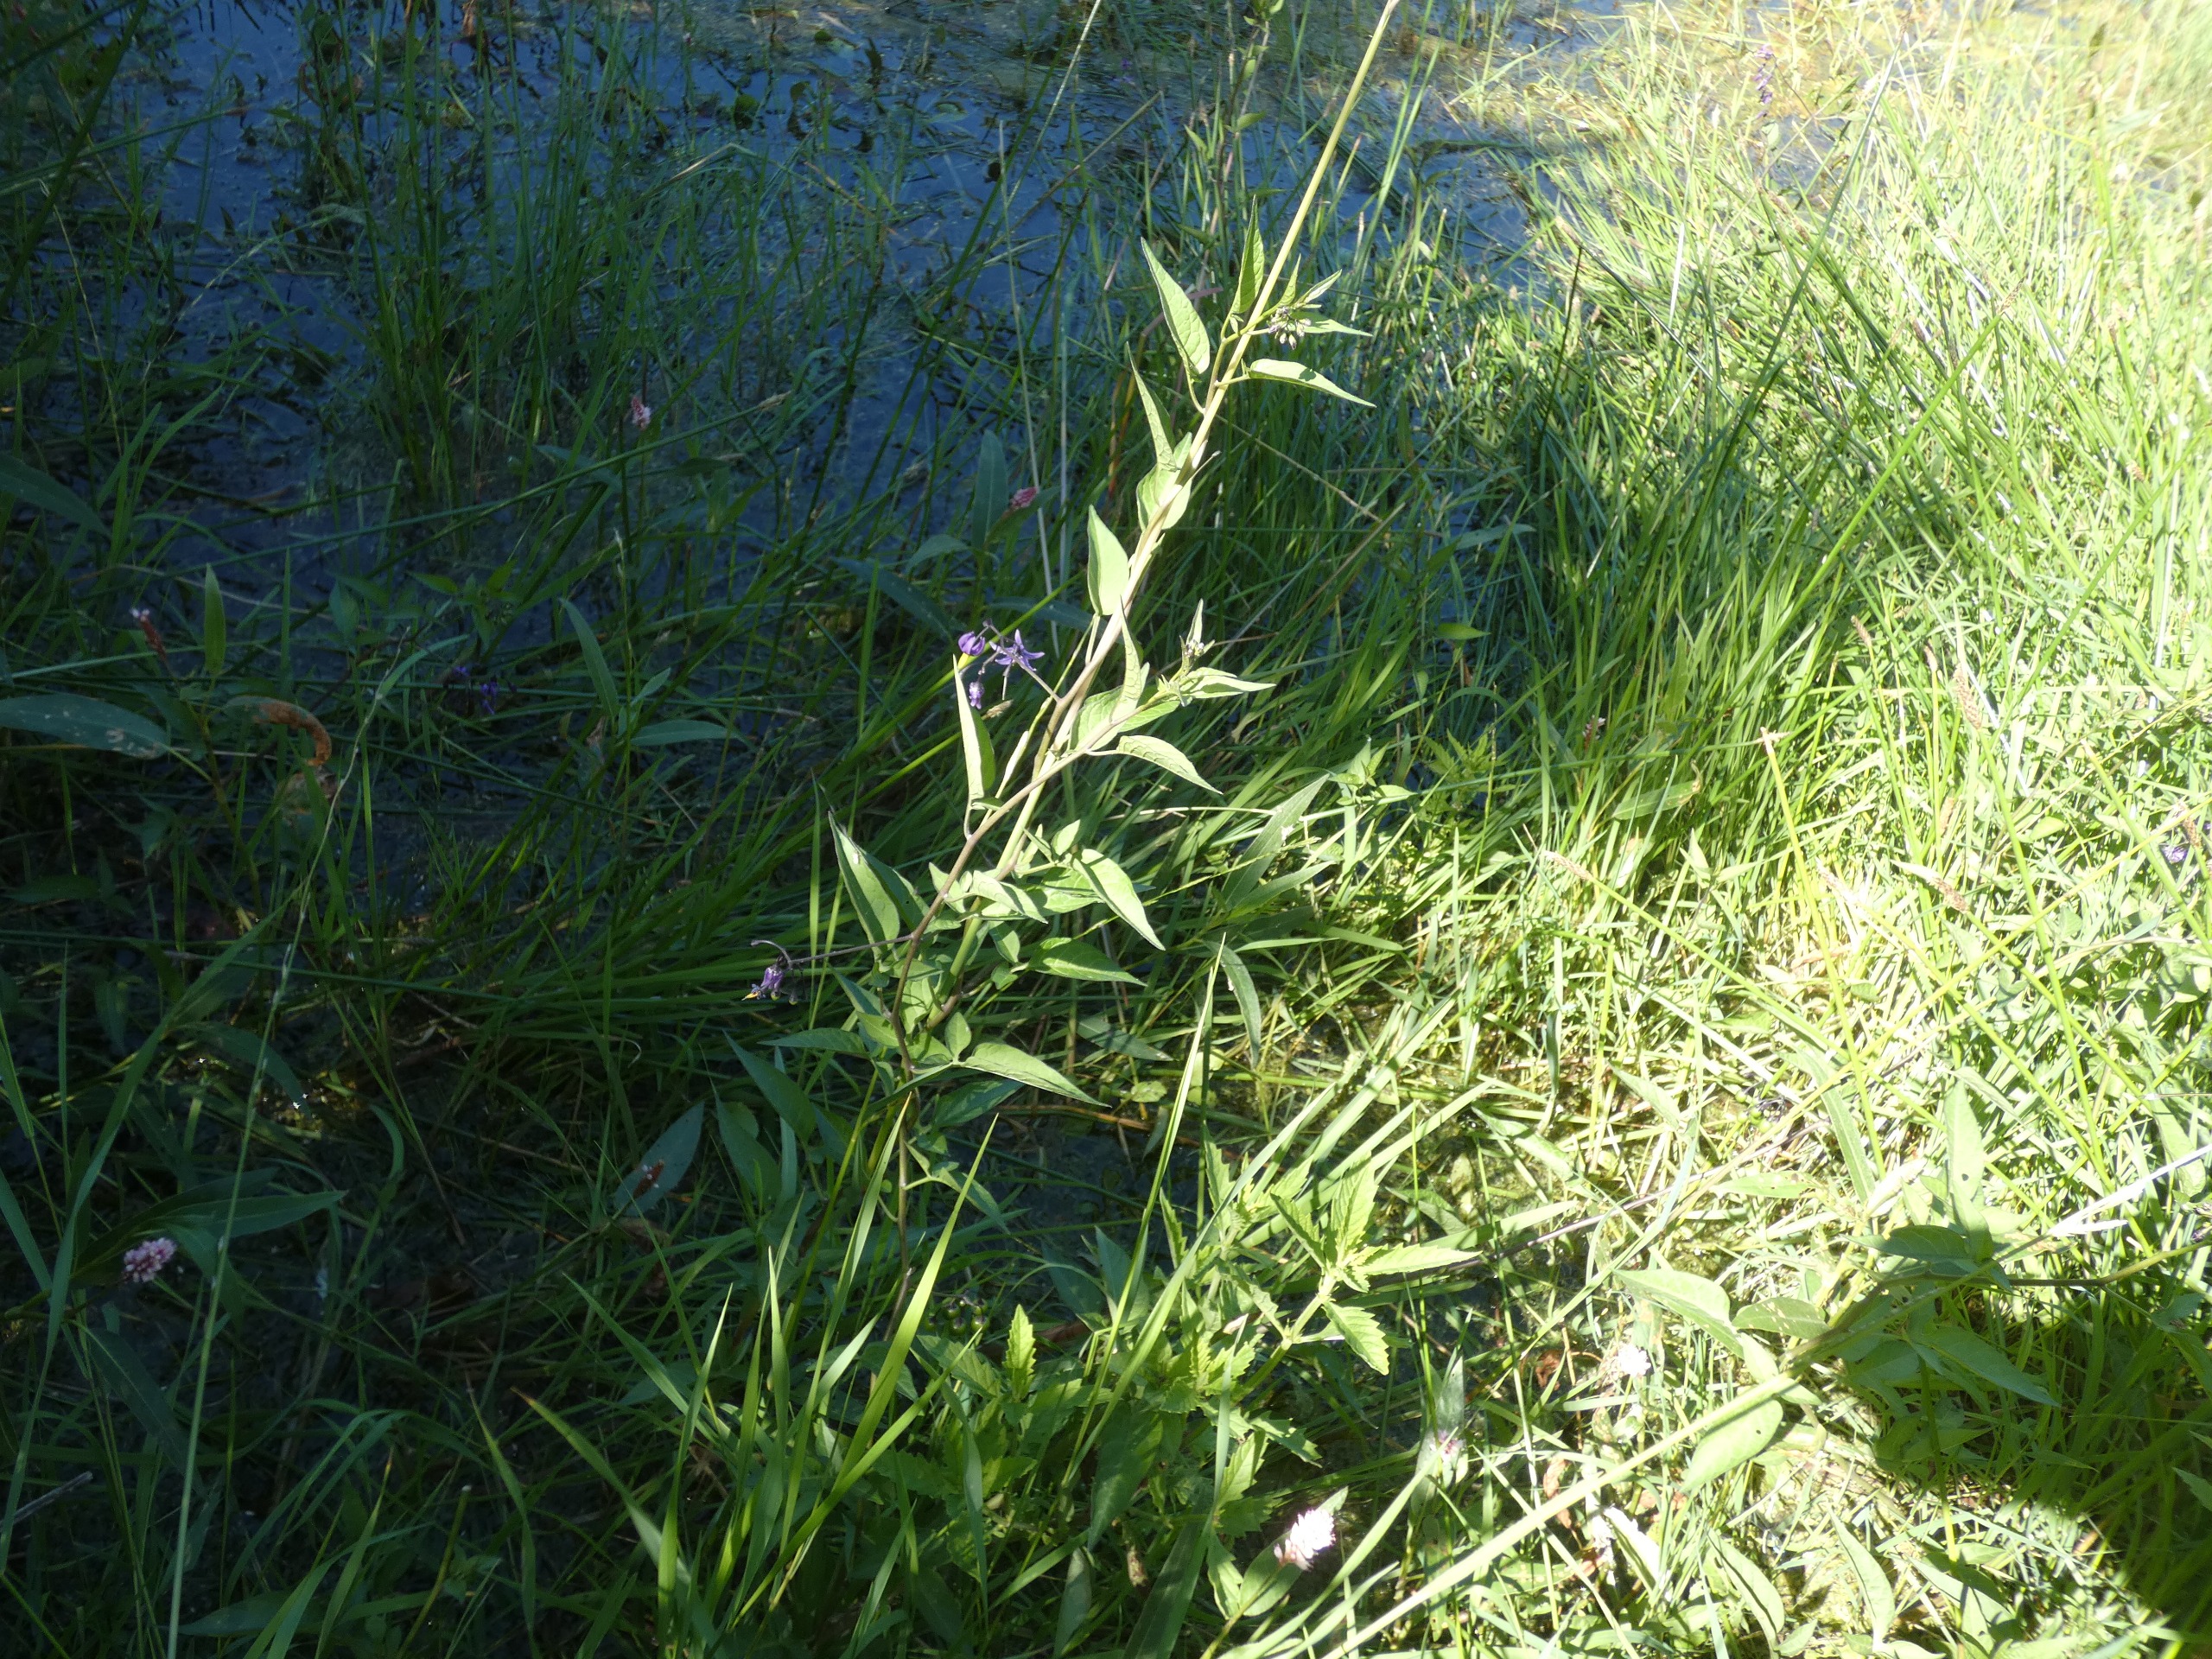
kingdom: Plantae
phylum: Tracheophyta
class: Magnoliopsida
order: Solanales
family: Solanaceae
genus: Solanum
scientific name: Solanum dulcamara
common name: Bittersød natskygge
